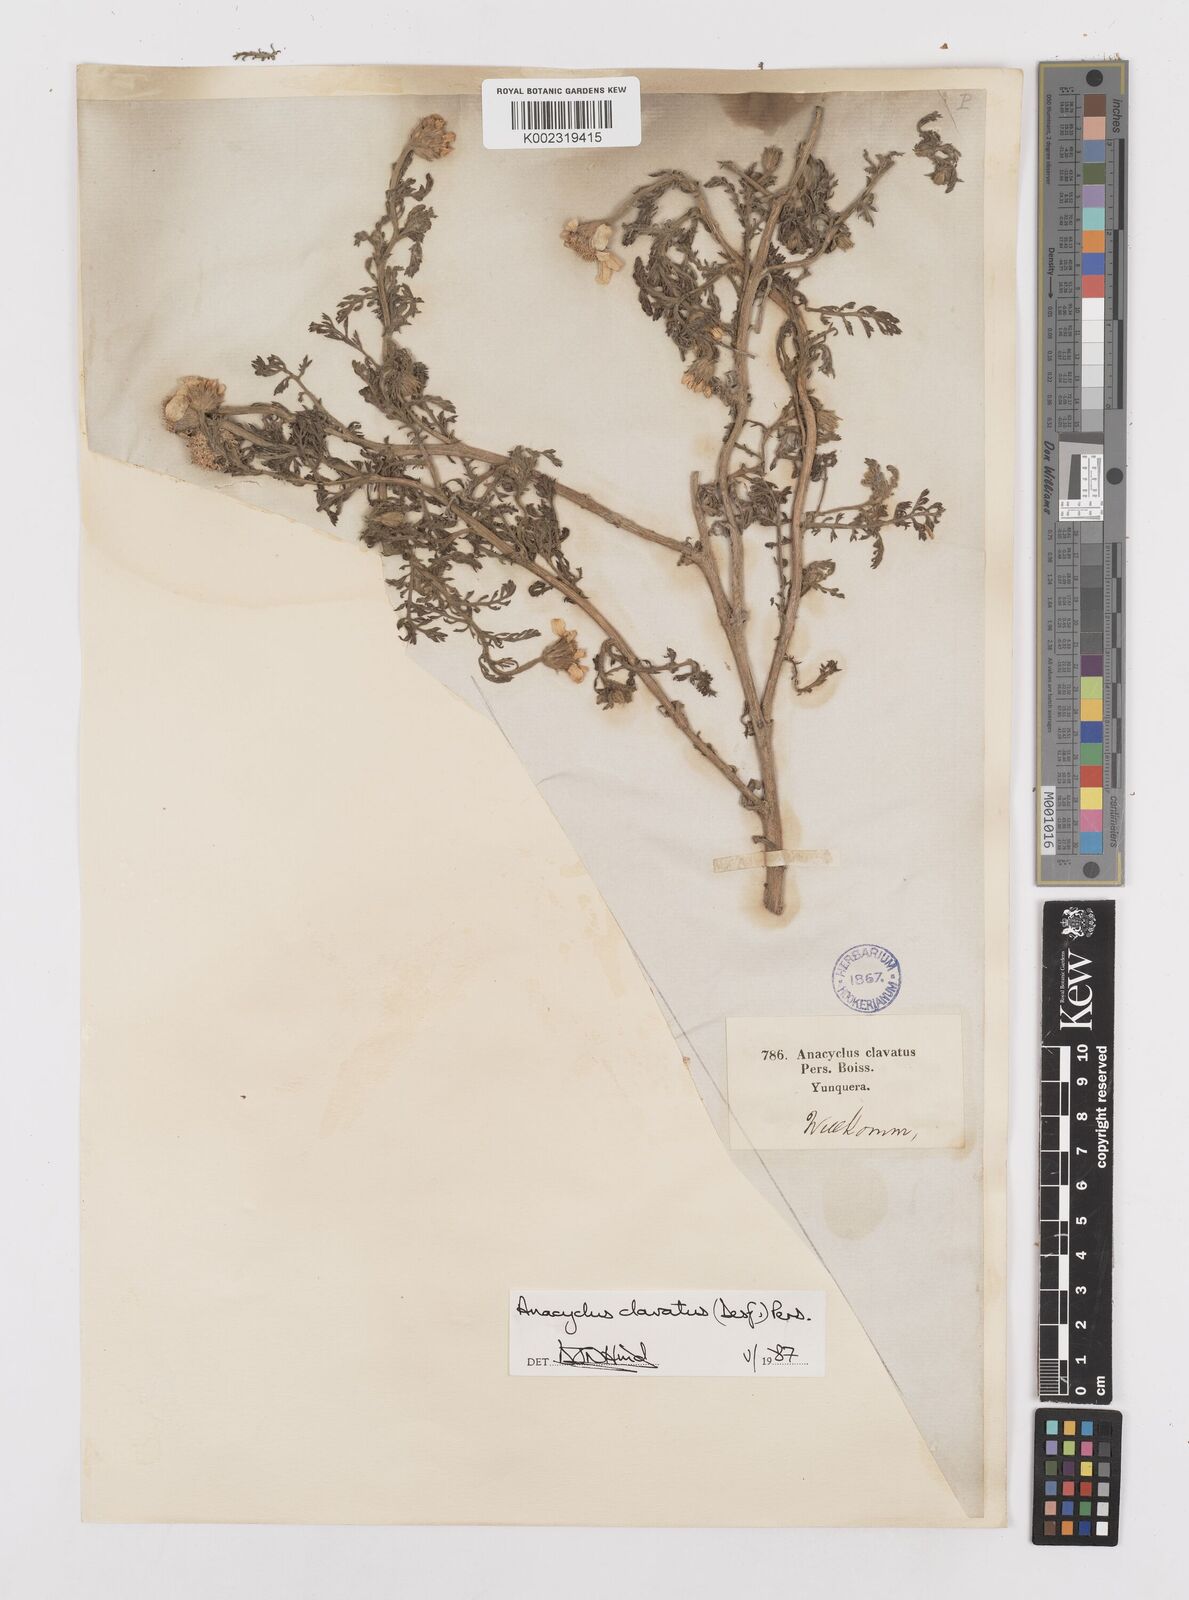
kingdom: Plantae
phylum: Tracheophyta
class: Magnoliopsida
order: Asterales
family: Asteraceae
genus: Anacyclus
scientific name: Anacyclus clavatus
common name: Whitebuttons
